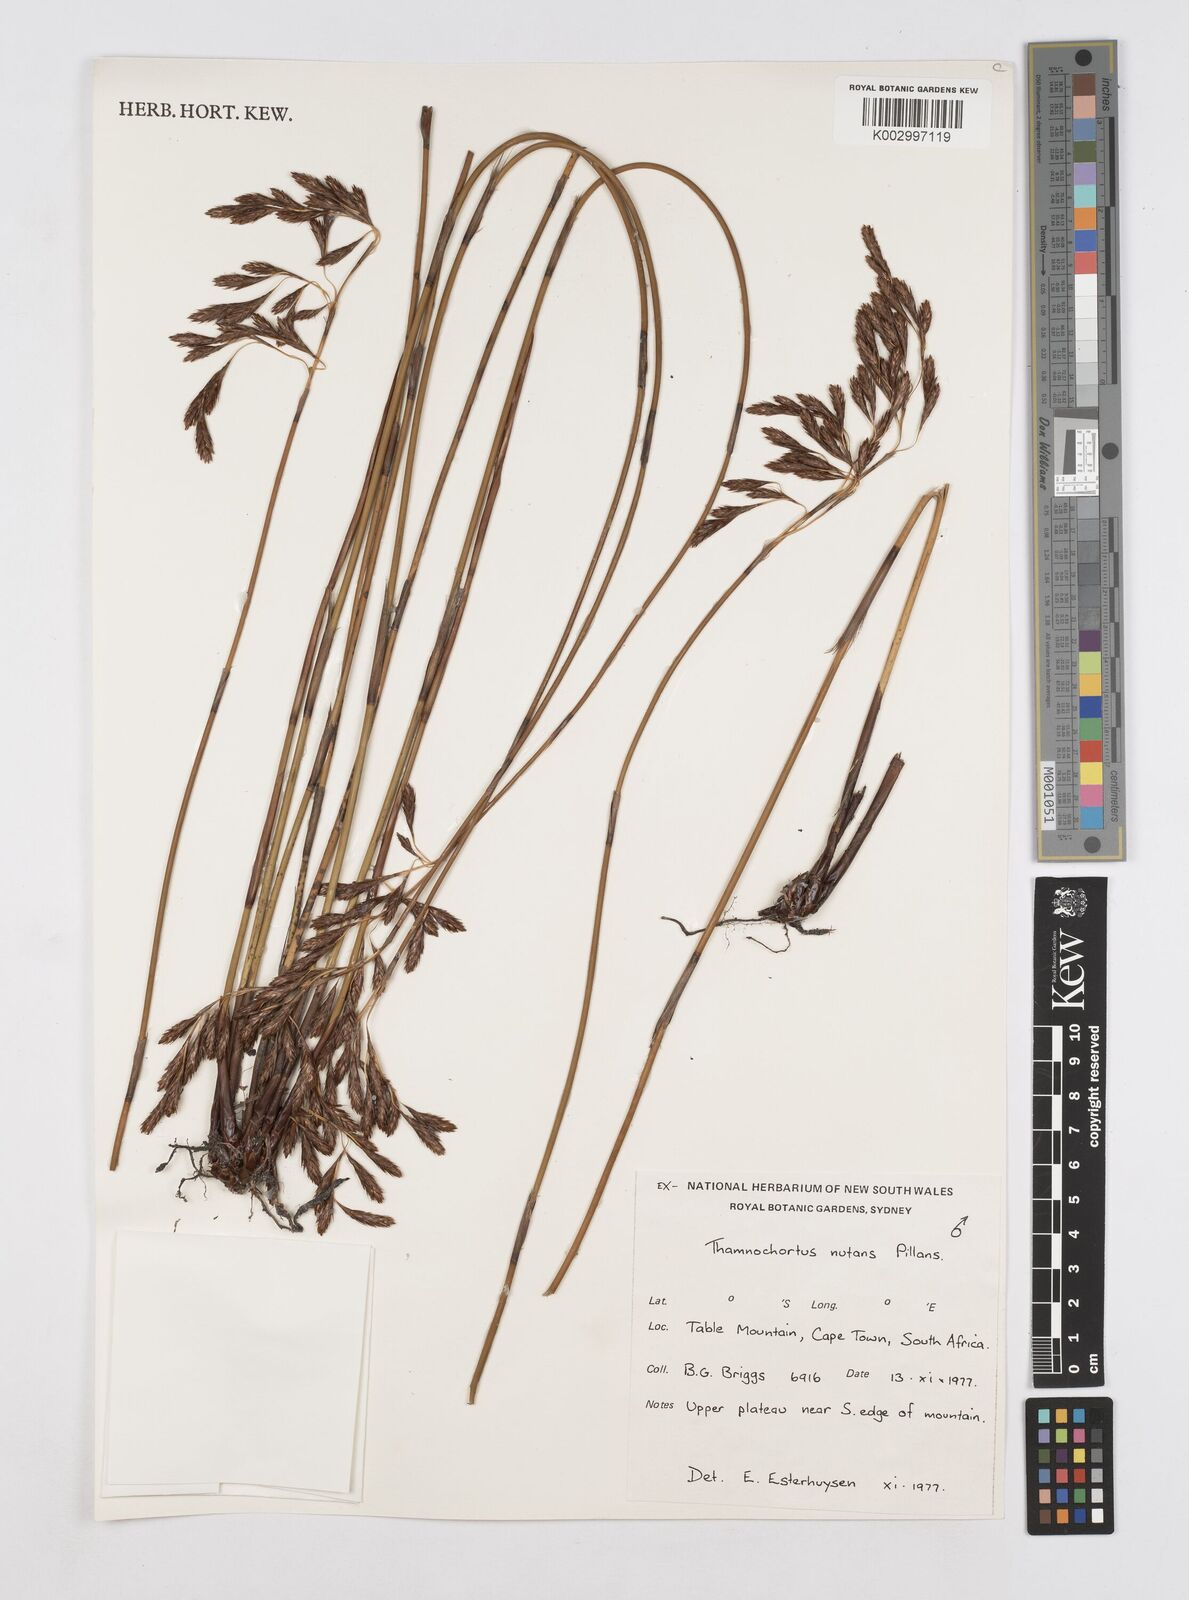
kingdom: Plantae
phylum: Tracheophyta
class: Liliopsida
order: Poales
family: Restionaceae
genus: Thamnochortus
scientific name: Thamnochortus nutans
